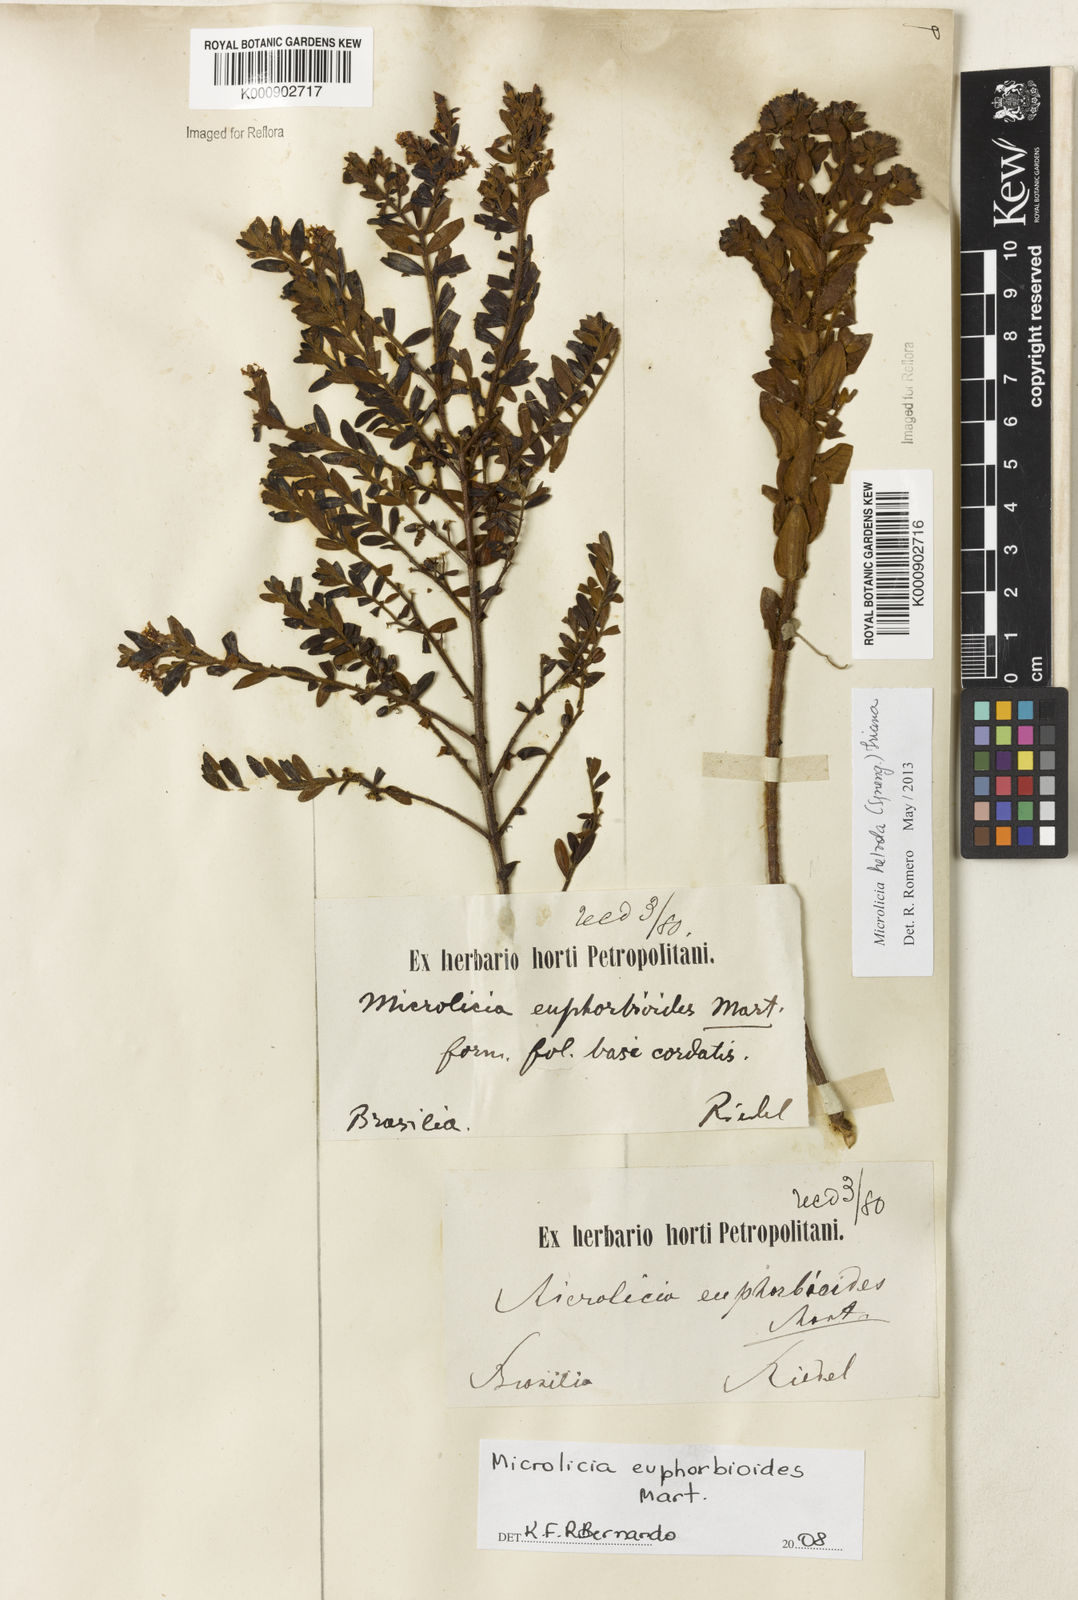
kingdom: Plantae
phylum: Tracheophyta
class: Magnoliopsida
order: Myrtales
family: Melastomataceae
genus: Microlicia
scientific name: Microlicia euphorbioides
